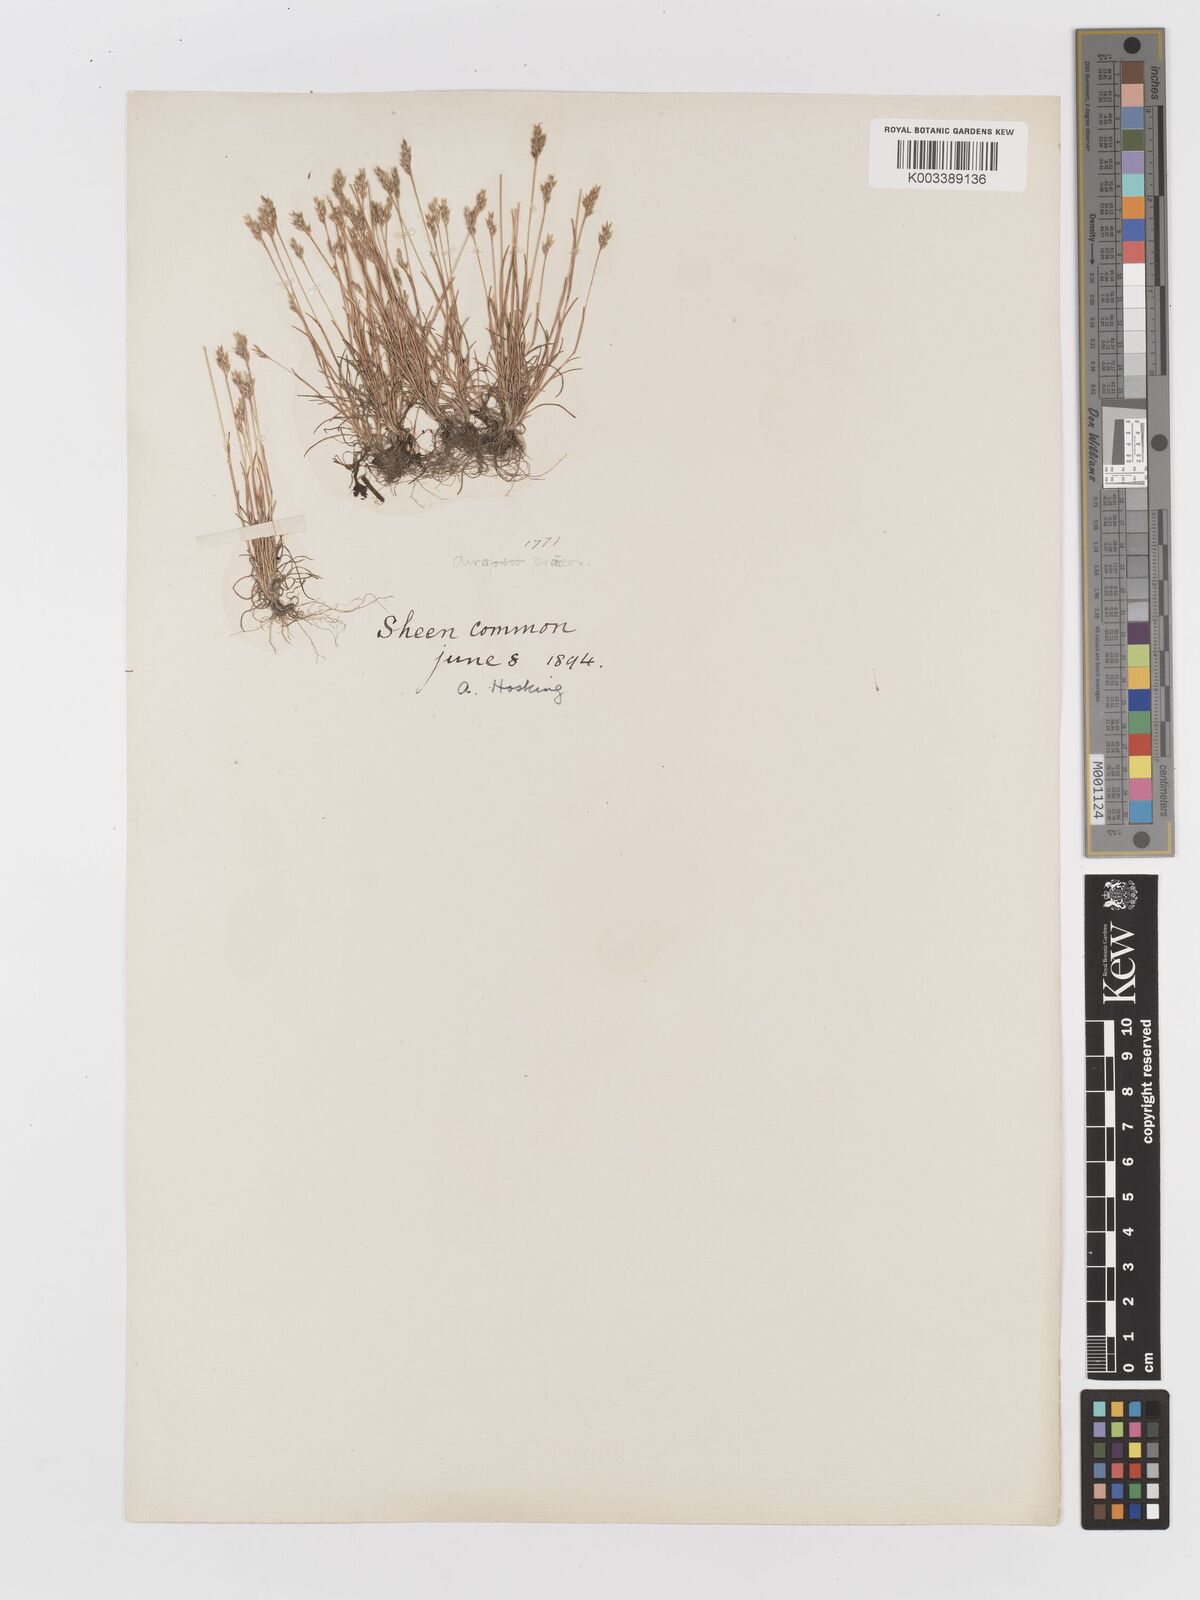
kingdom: Plantae
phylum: Tracheophyta
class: Liliopsida
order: Poales
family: Poaceae
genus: Aira
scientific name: Aira praecox
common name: Early hair-grass
